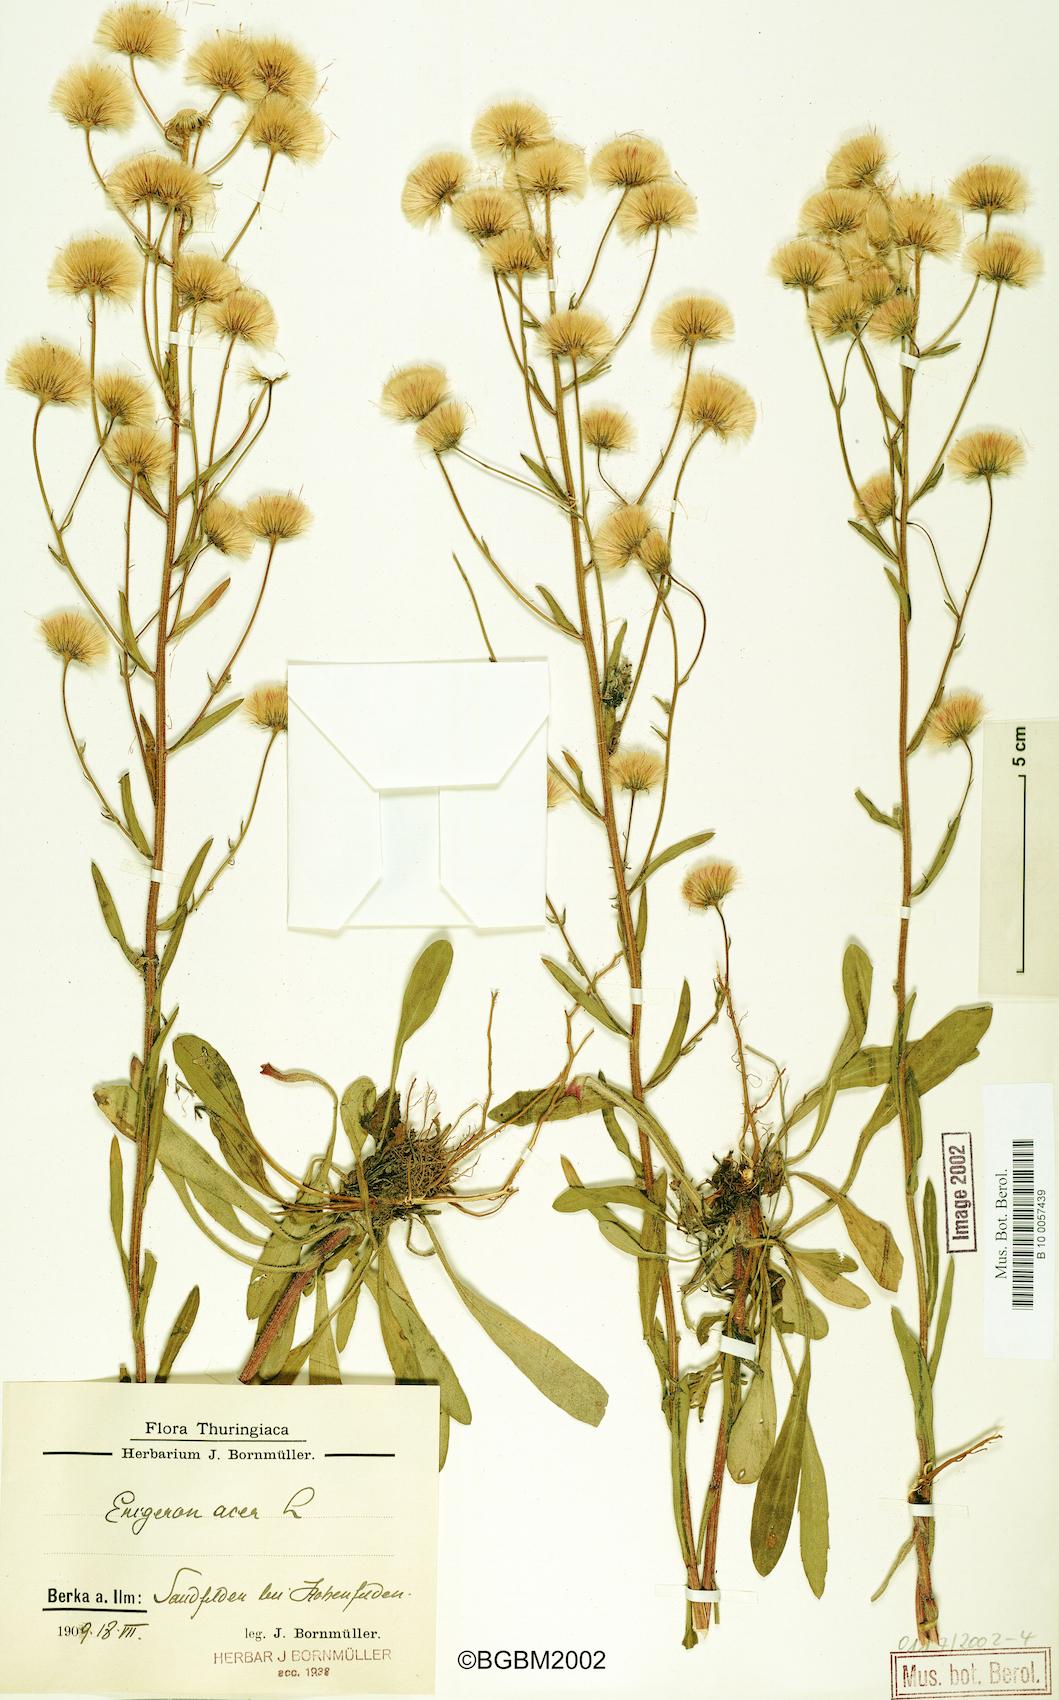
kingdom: Plantae
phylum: Tracheophyta
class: Magnoliopsida
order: Asterales
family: Asteraceae
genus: Erigeron
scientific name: Erigeron acris
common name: Blue fleabane
